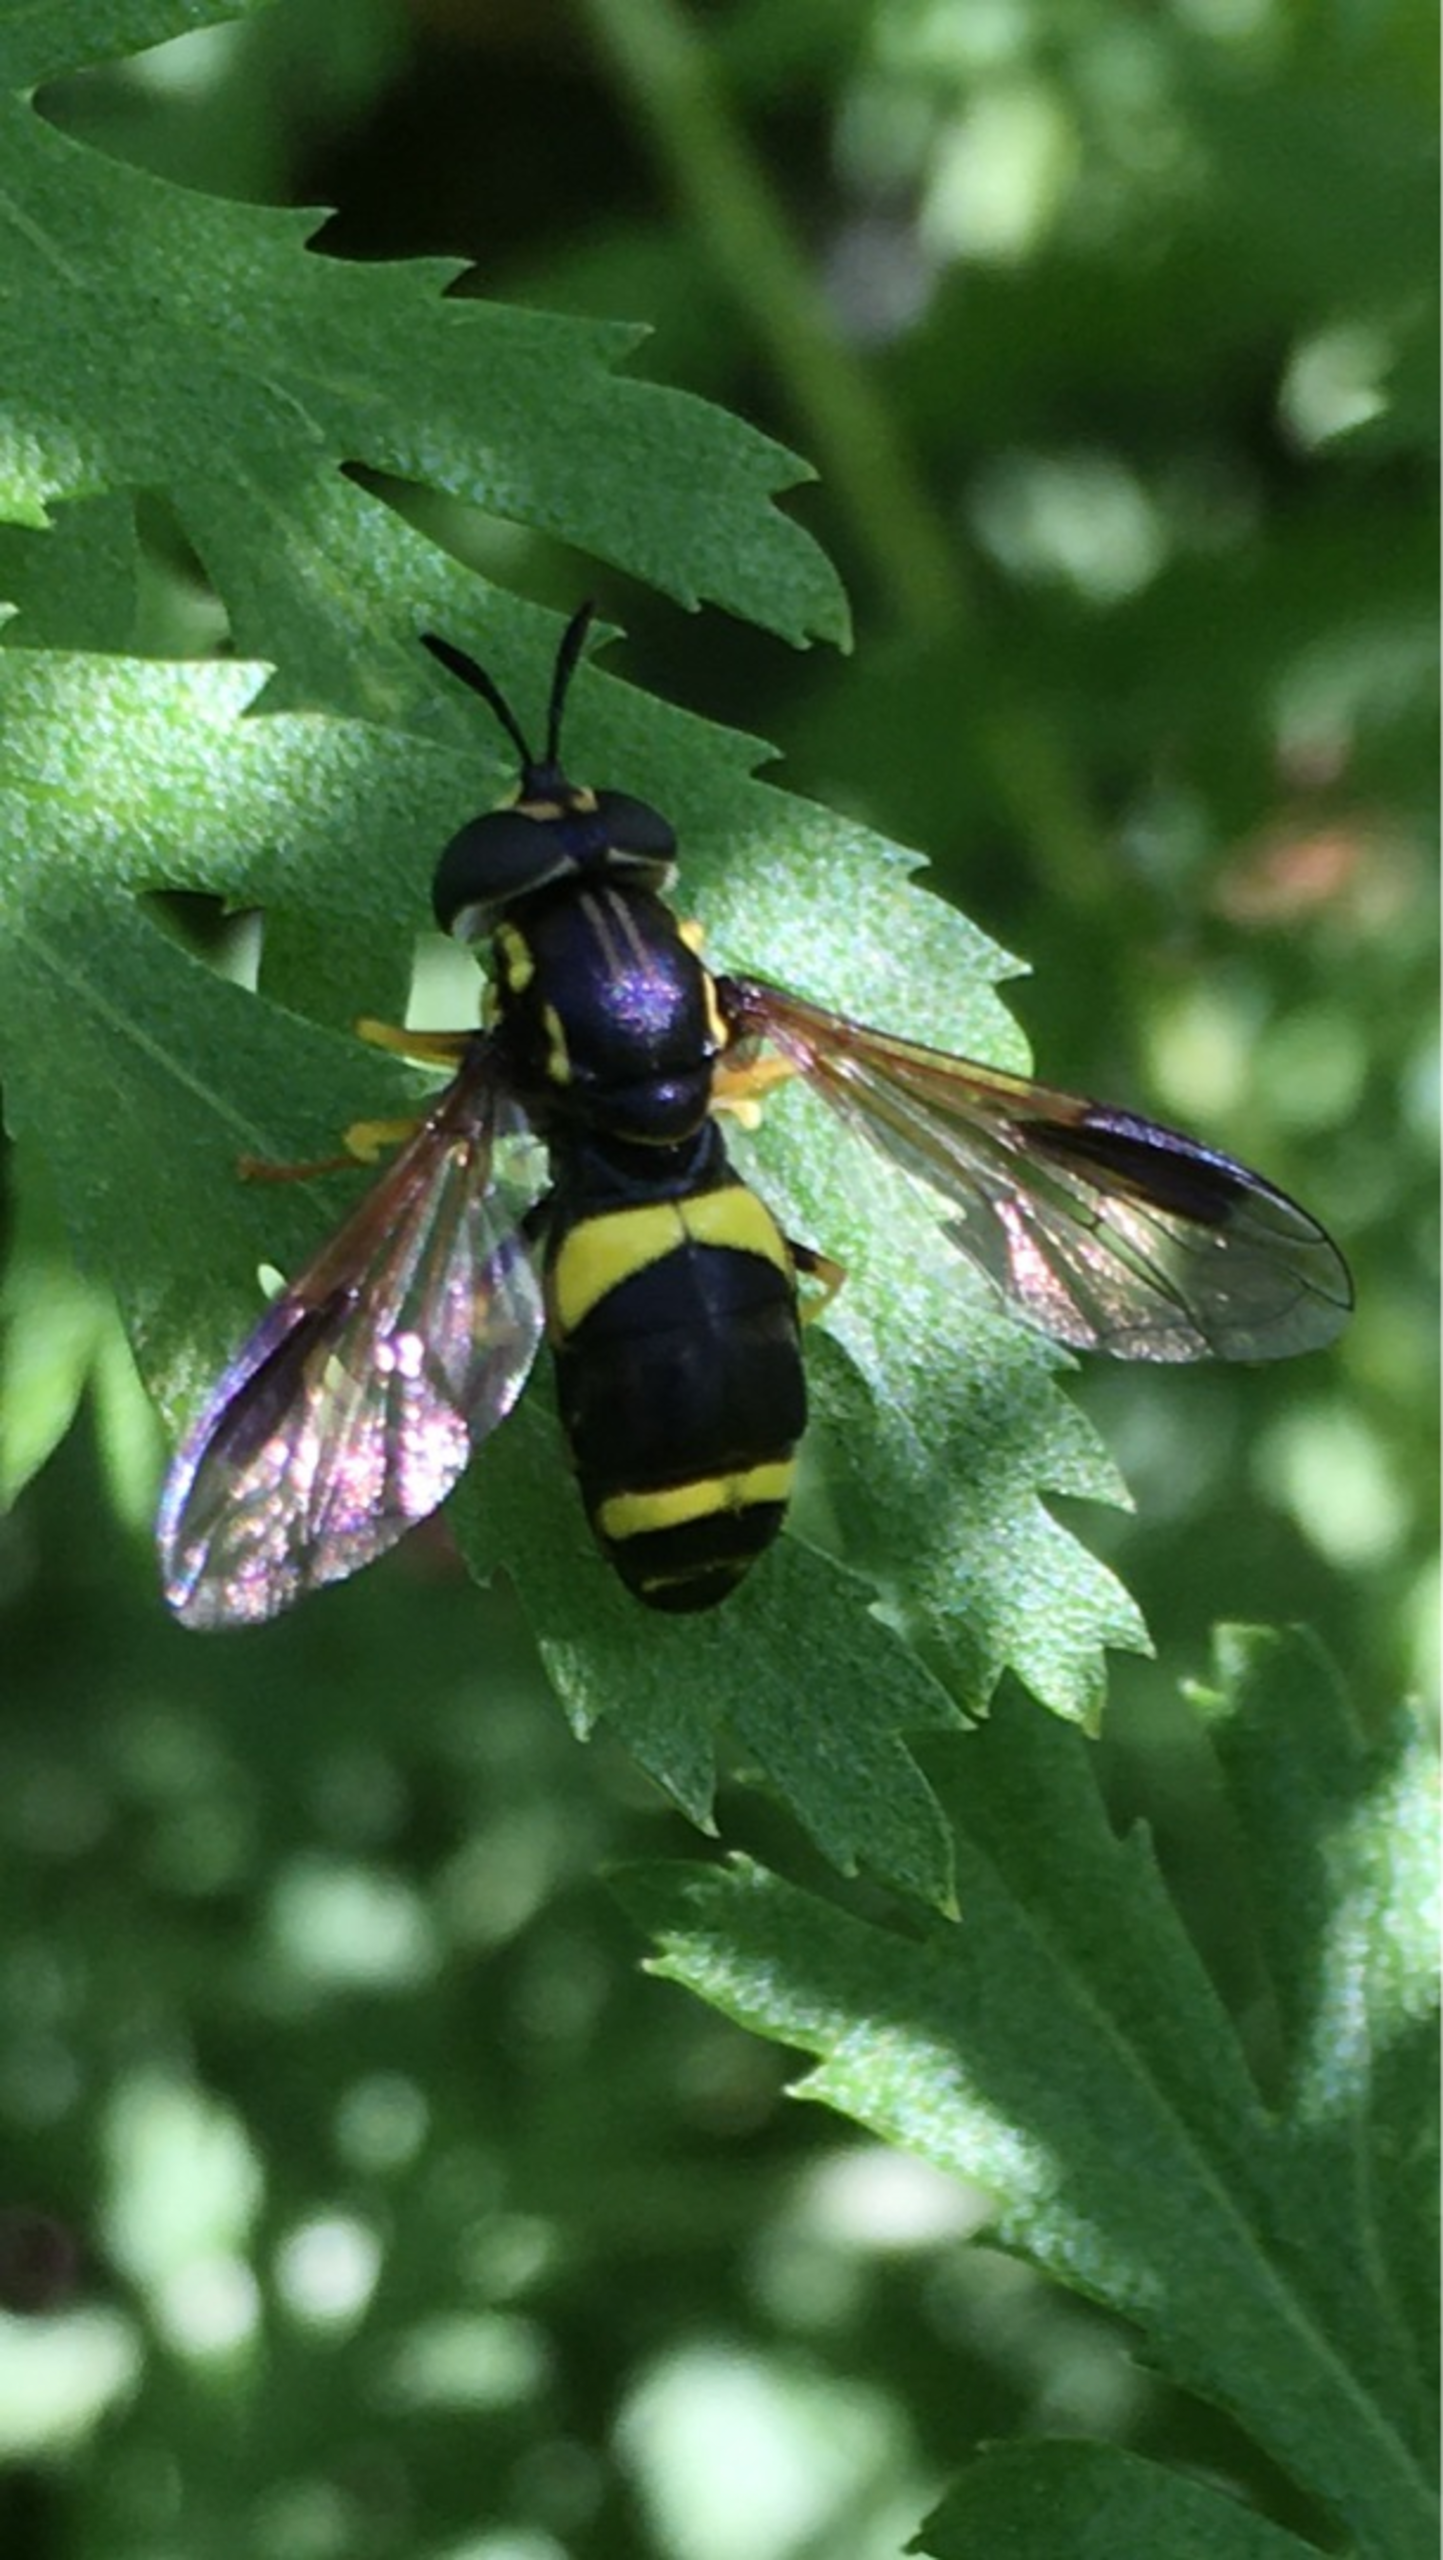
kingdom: Animalia
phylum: Arthropoda
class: Insecta
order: Diptera
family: Syrphidae
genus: Chrysotoxum
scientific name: Chrysotoxum bicincta
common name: Tobåndet hvepsesvirreflue
